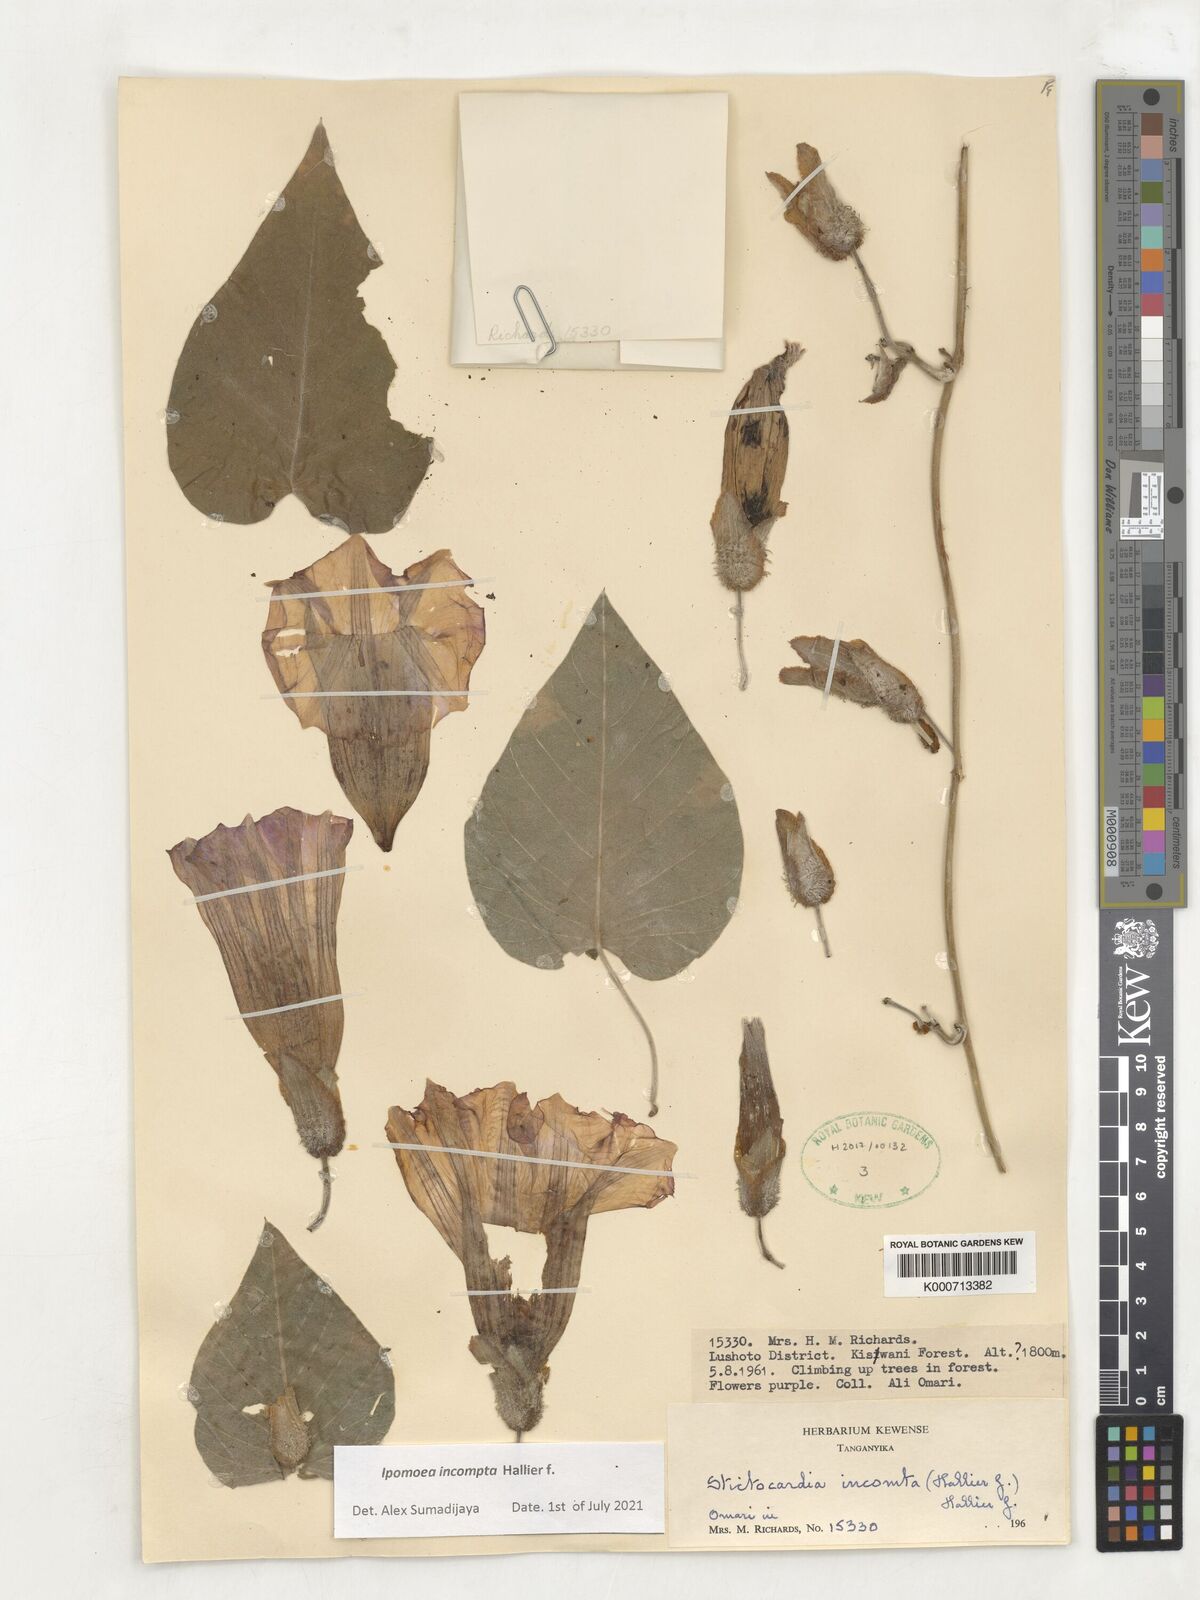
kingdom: Plantae
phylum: Tracheophyta
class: Magnoliopsida
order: Solanales
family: Convolvulaceae
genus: Stictocardia
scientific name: Stictocardia incomta
